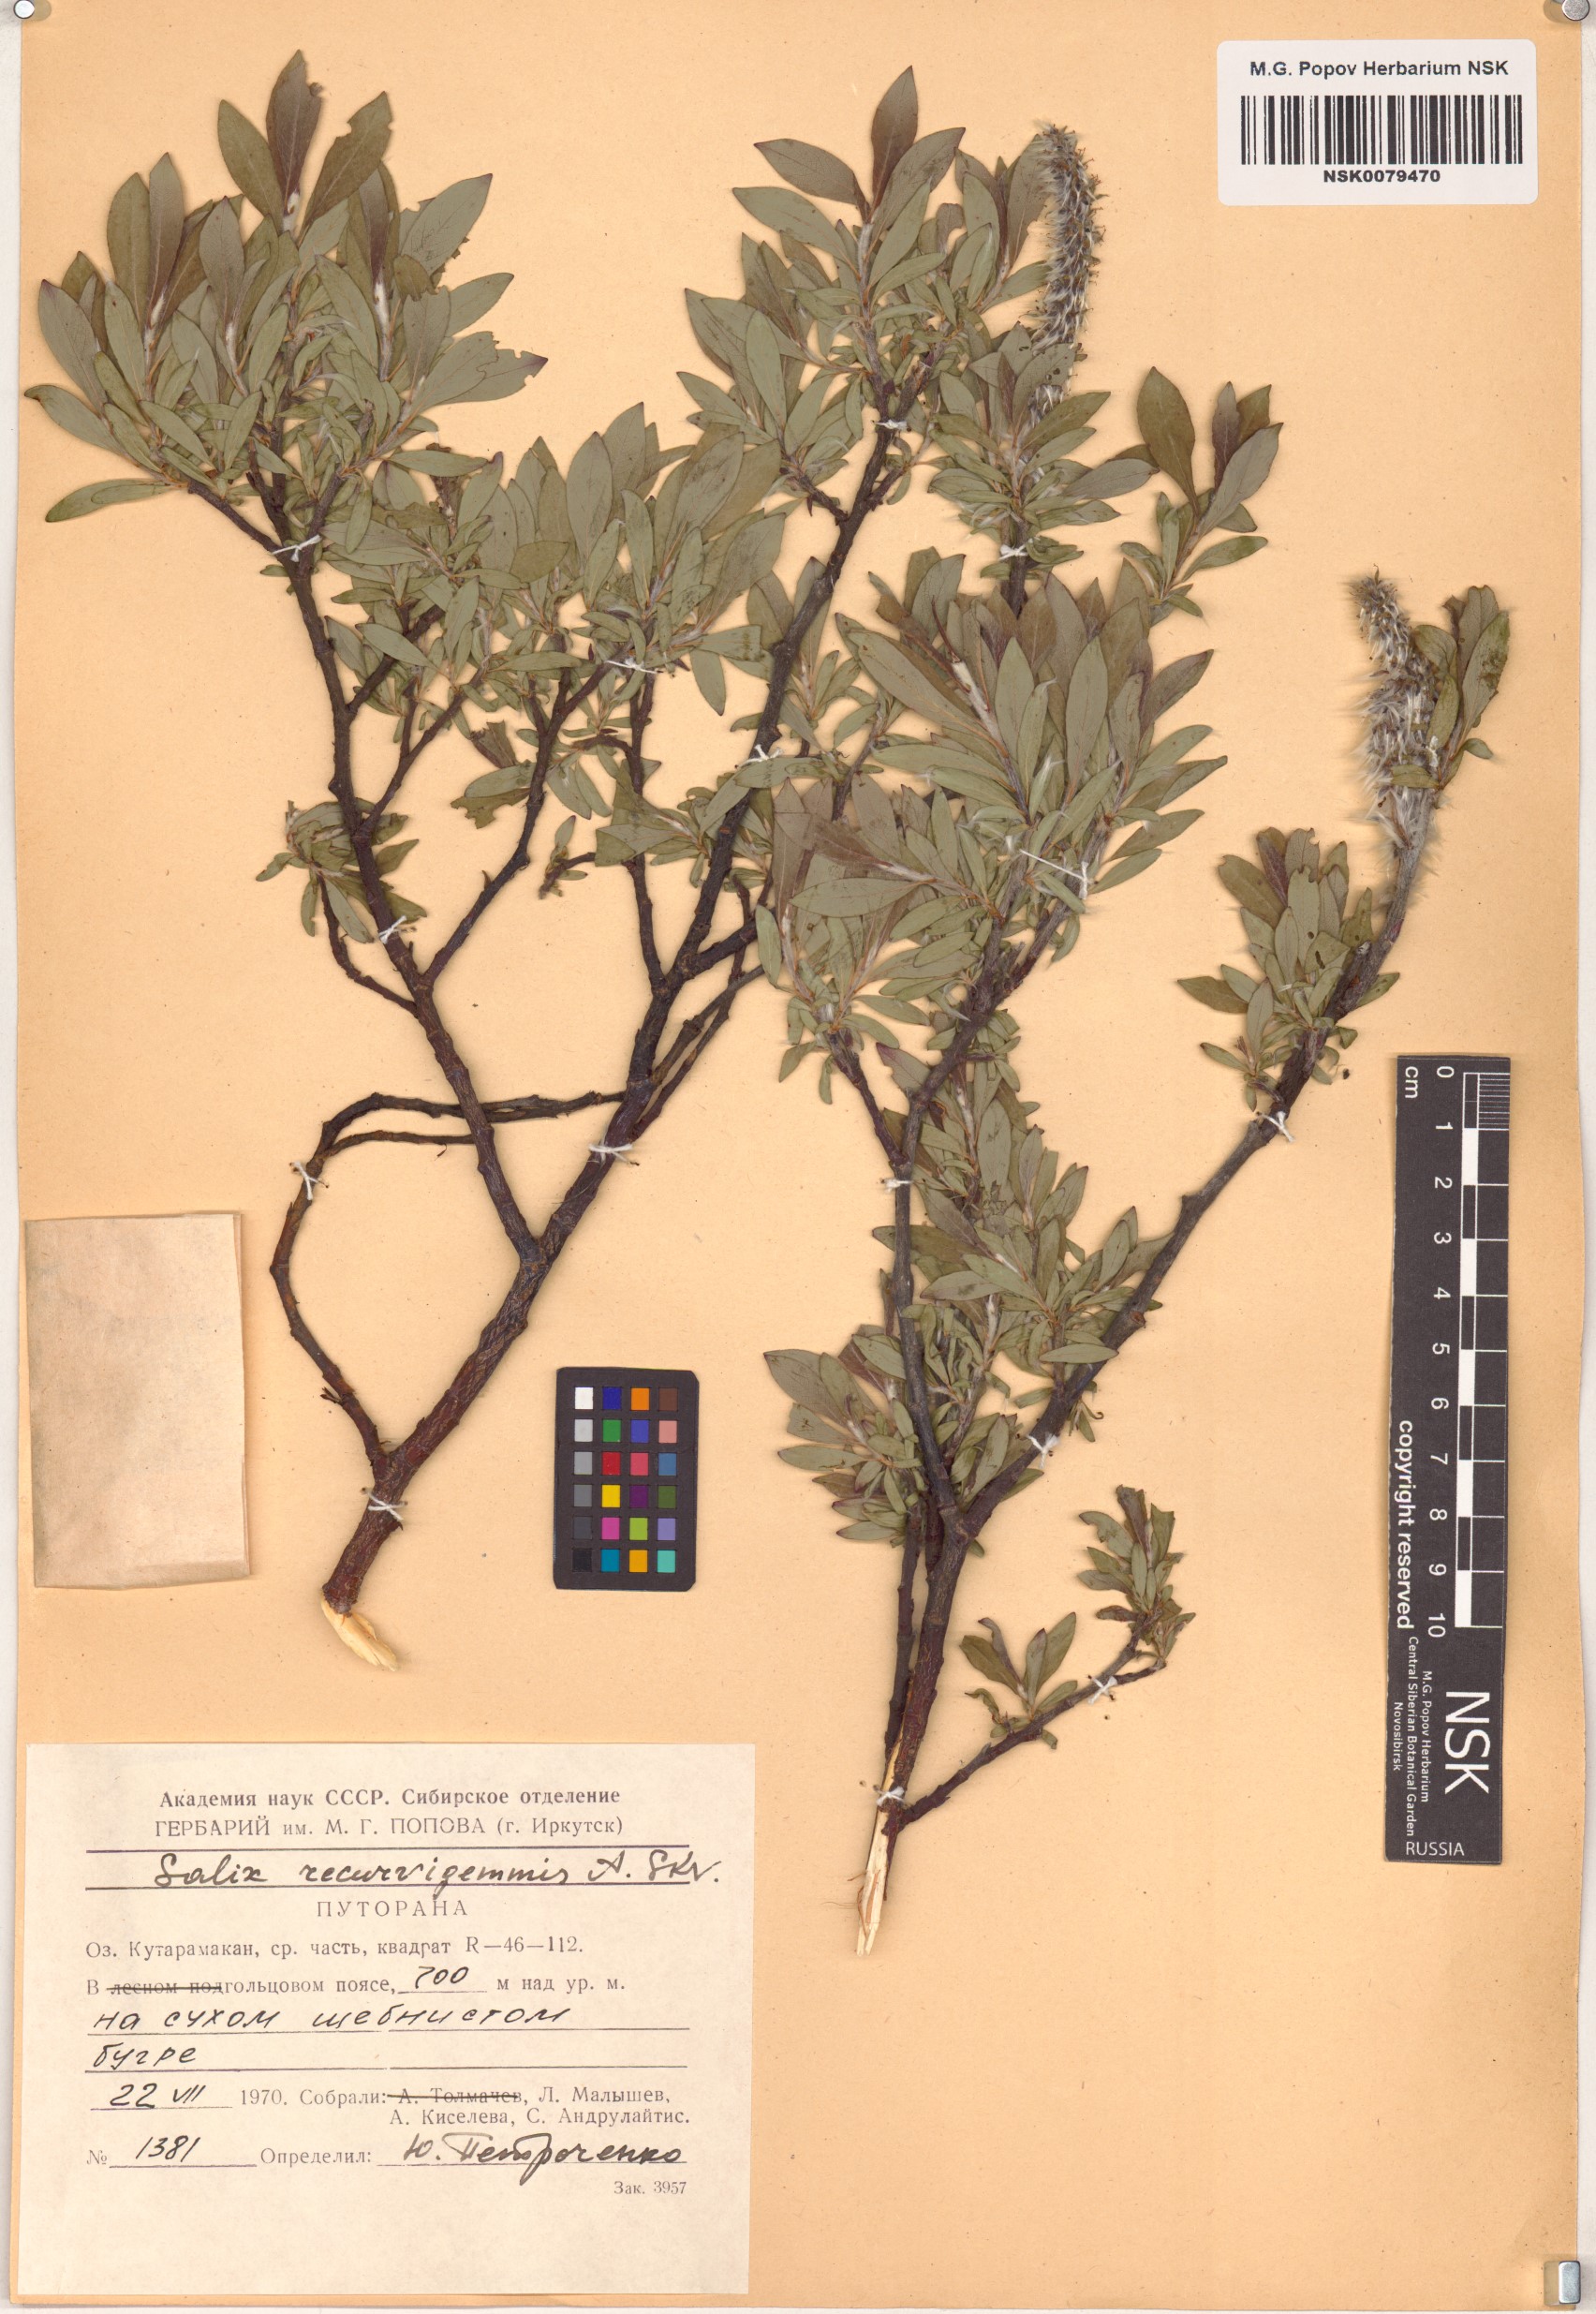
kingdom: Plantae
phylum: Tracheophyta
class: Magnoliopsida
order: Malpighiales
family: Salicaceae
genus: Salix
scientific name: Salix recurvigemmata
